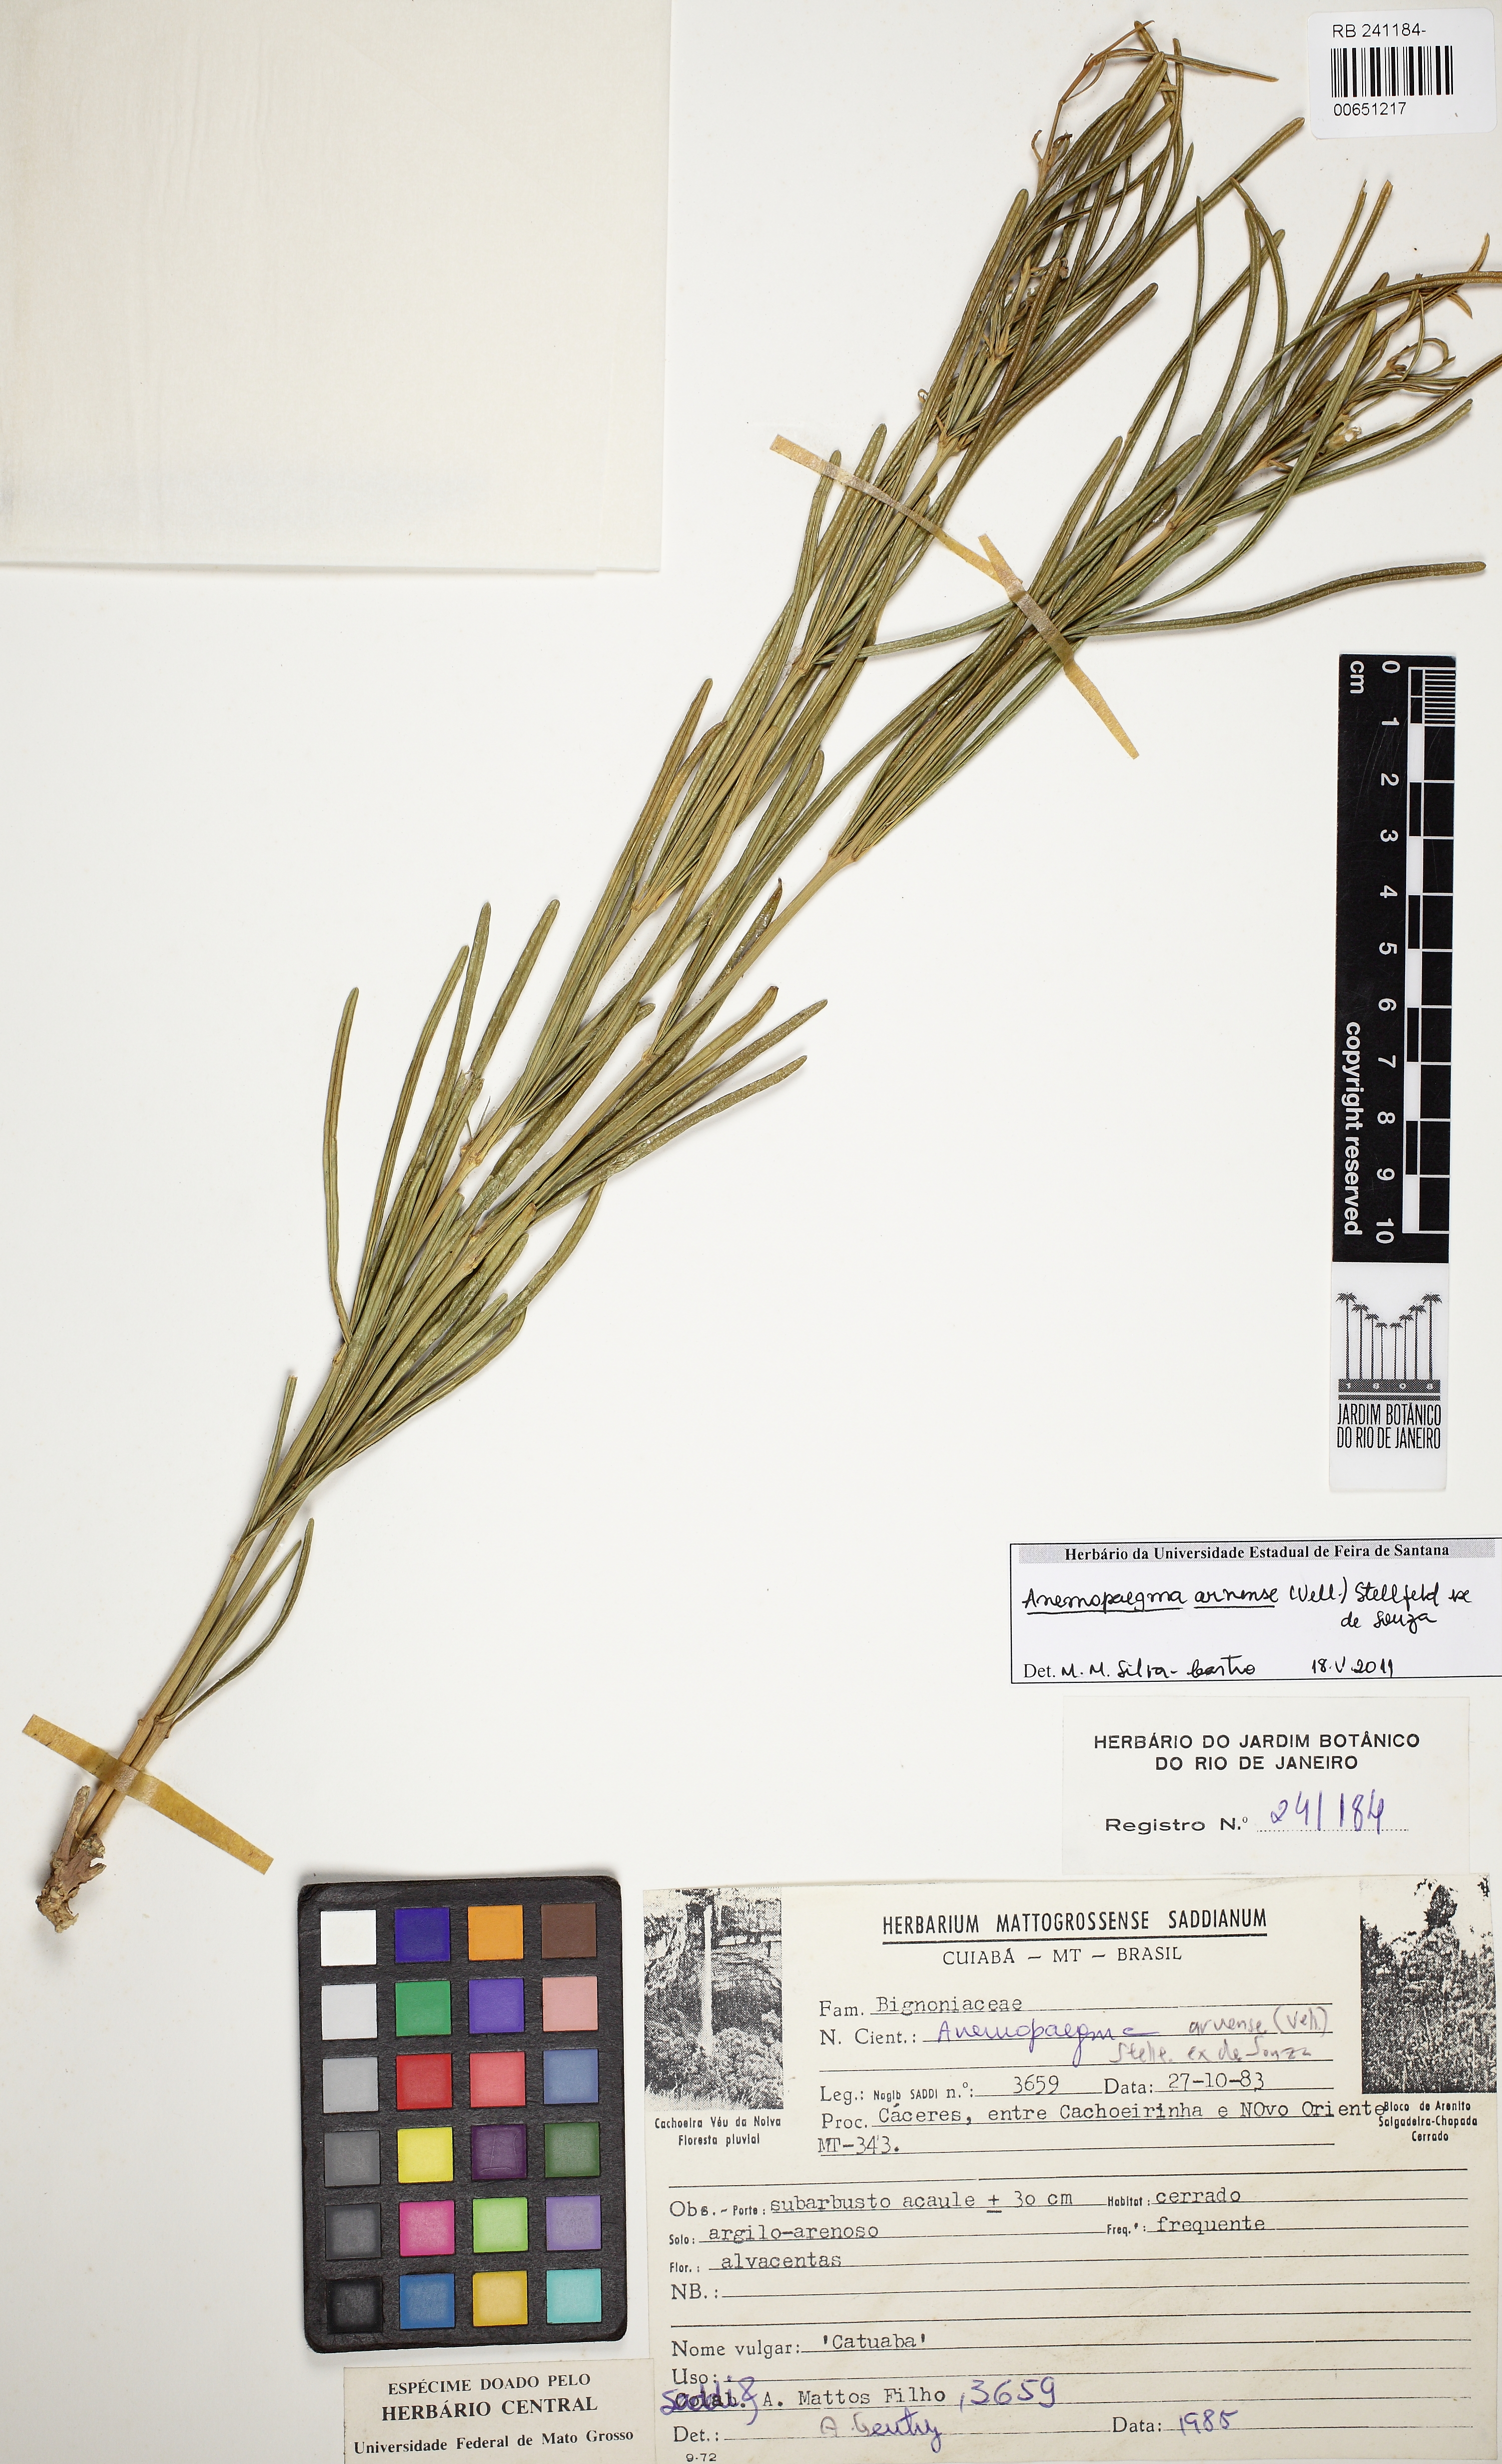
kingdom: Plantae
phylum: Tracheophyta
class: Magnoliopsida
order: Lamiales
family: Bignoniaceae
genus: Anemopaegma
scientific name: Anemopaegma arvense
